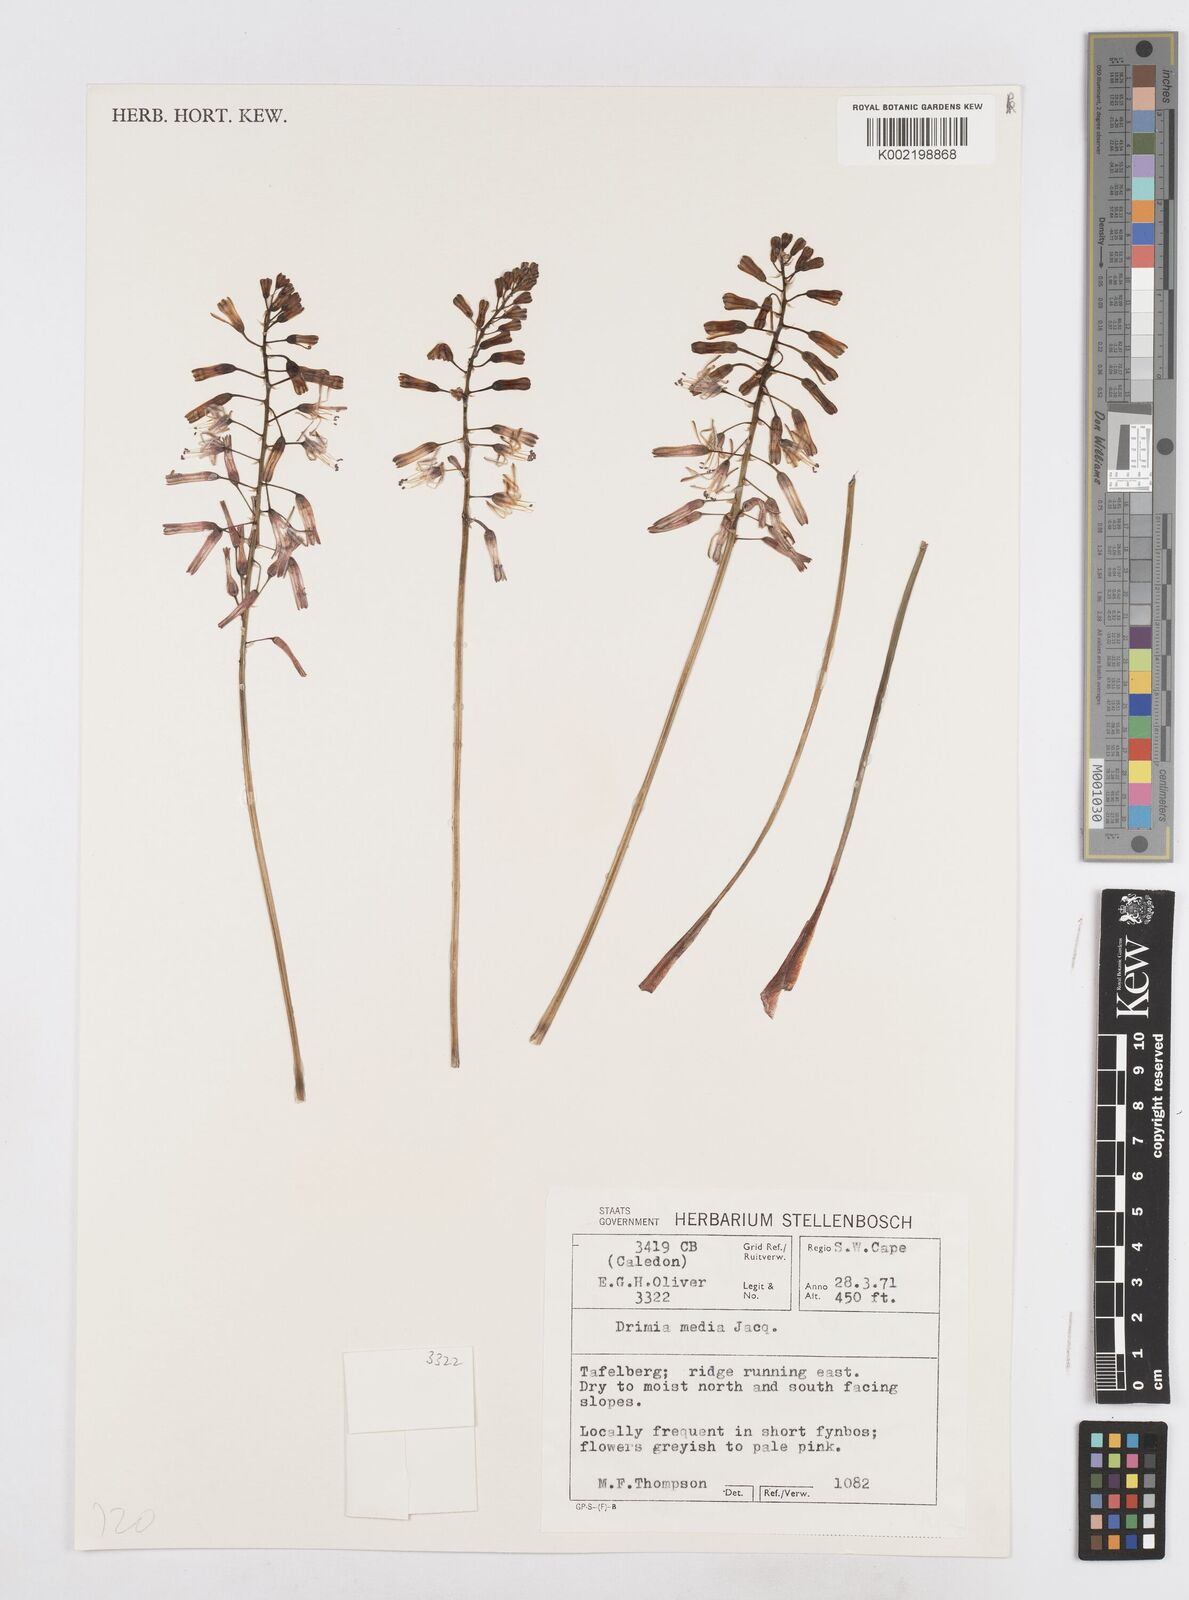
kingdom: Plantae
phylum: Tracheophyta
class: Liliopsida
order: Asparagales
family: Asparagaceae
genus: Drimia
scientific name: Drimia media
